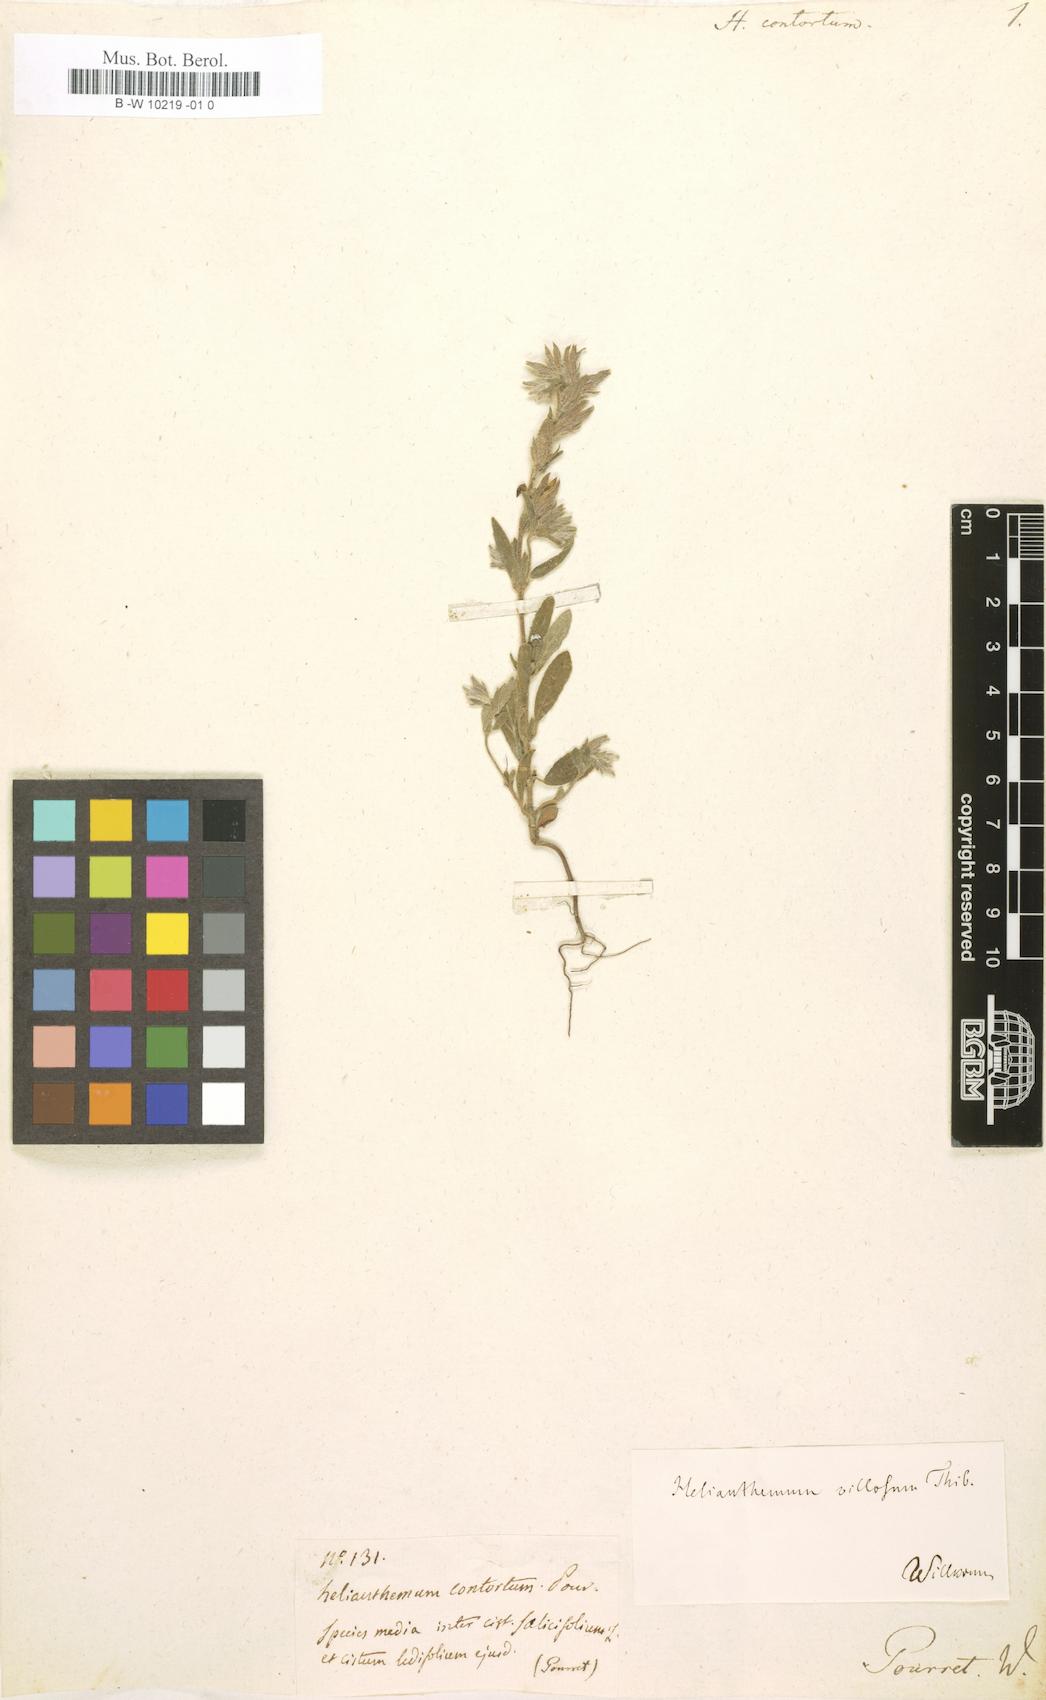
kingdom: Plantae
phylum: Tracheophyta
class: Magnoliopsida
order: Malvales
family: Cistaceae
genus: Helianthemum
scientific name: Helianthemum angustatum
